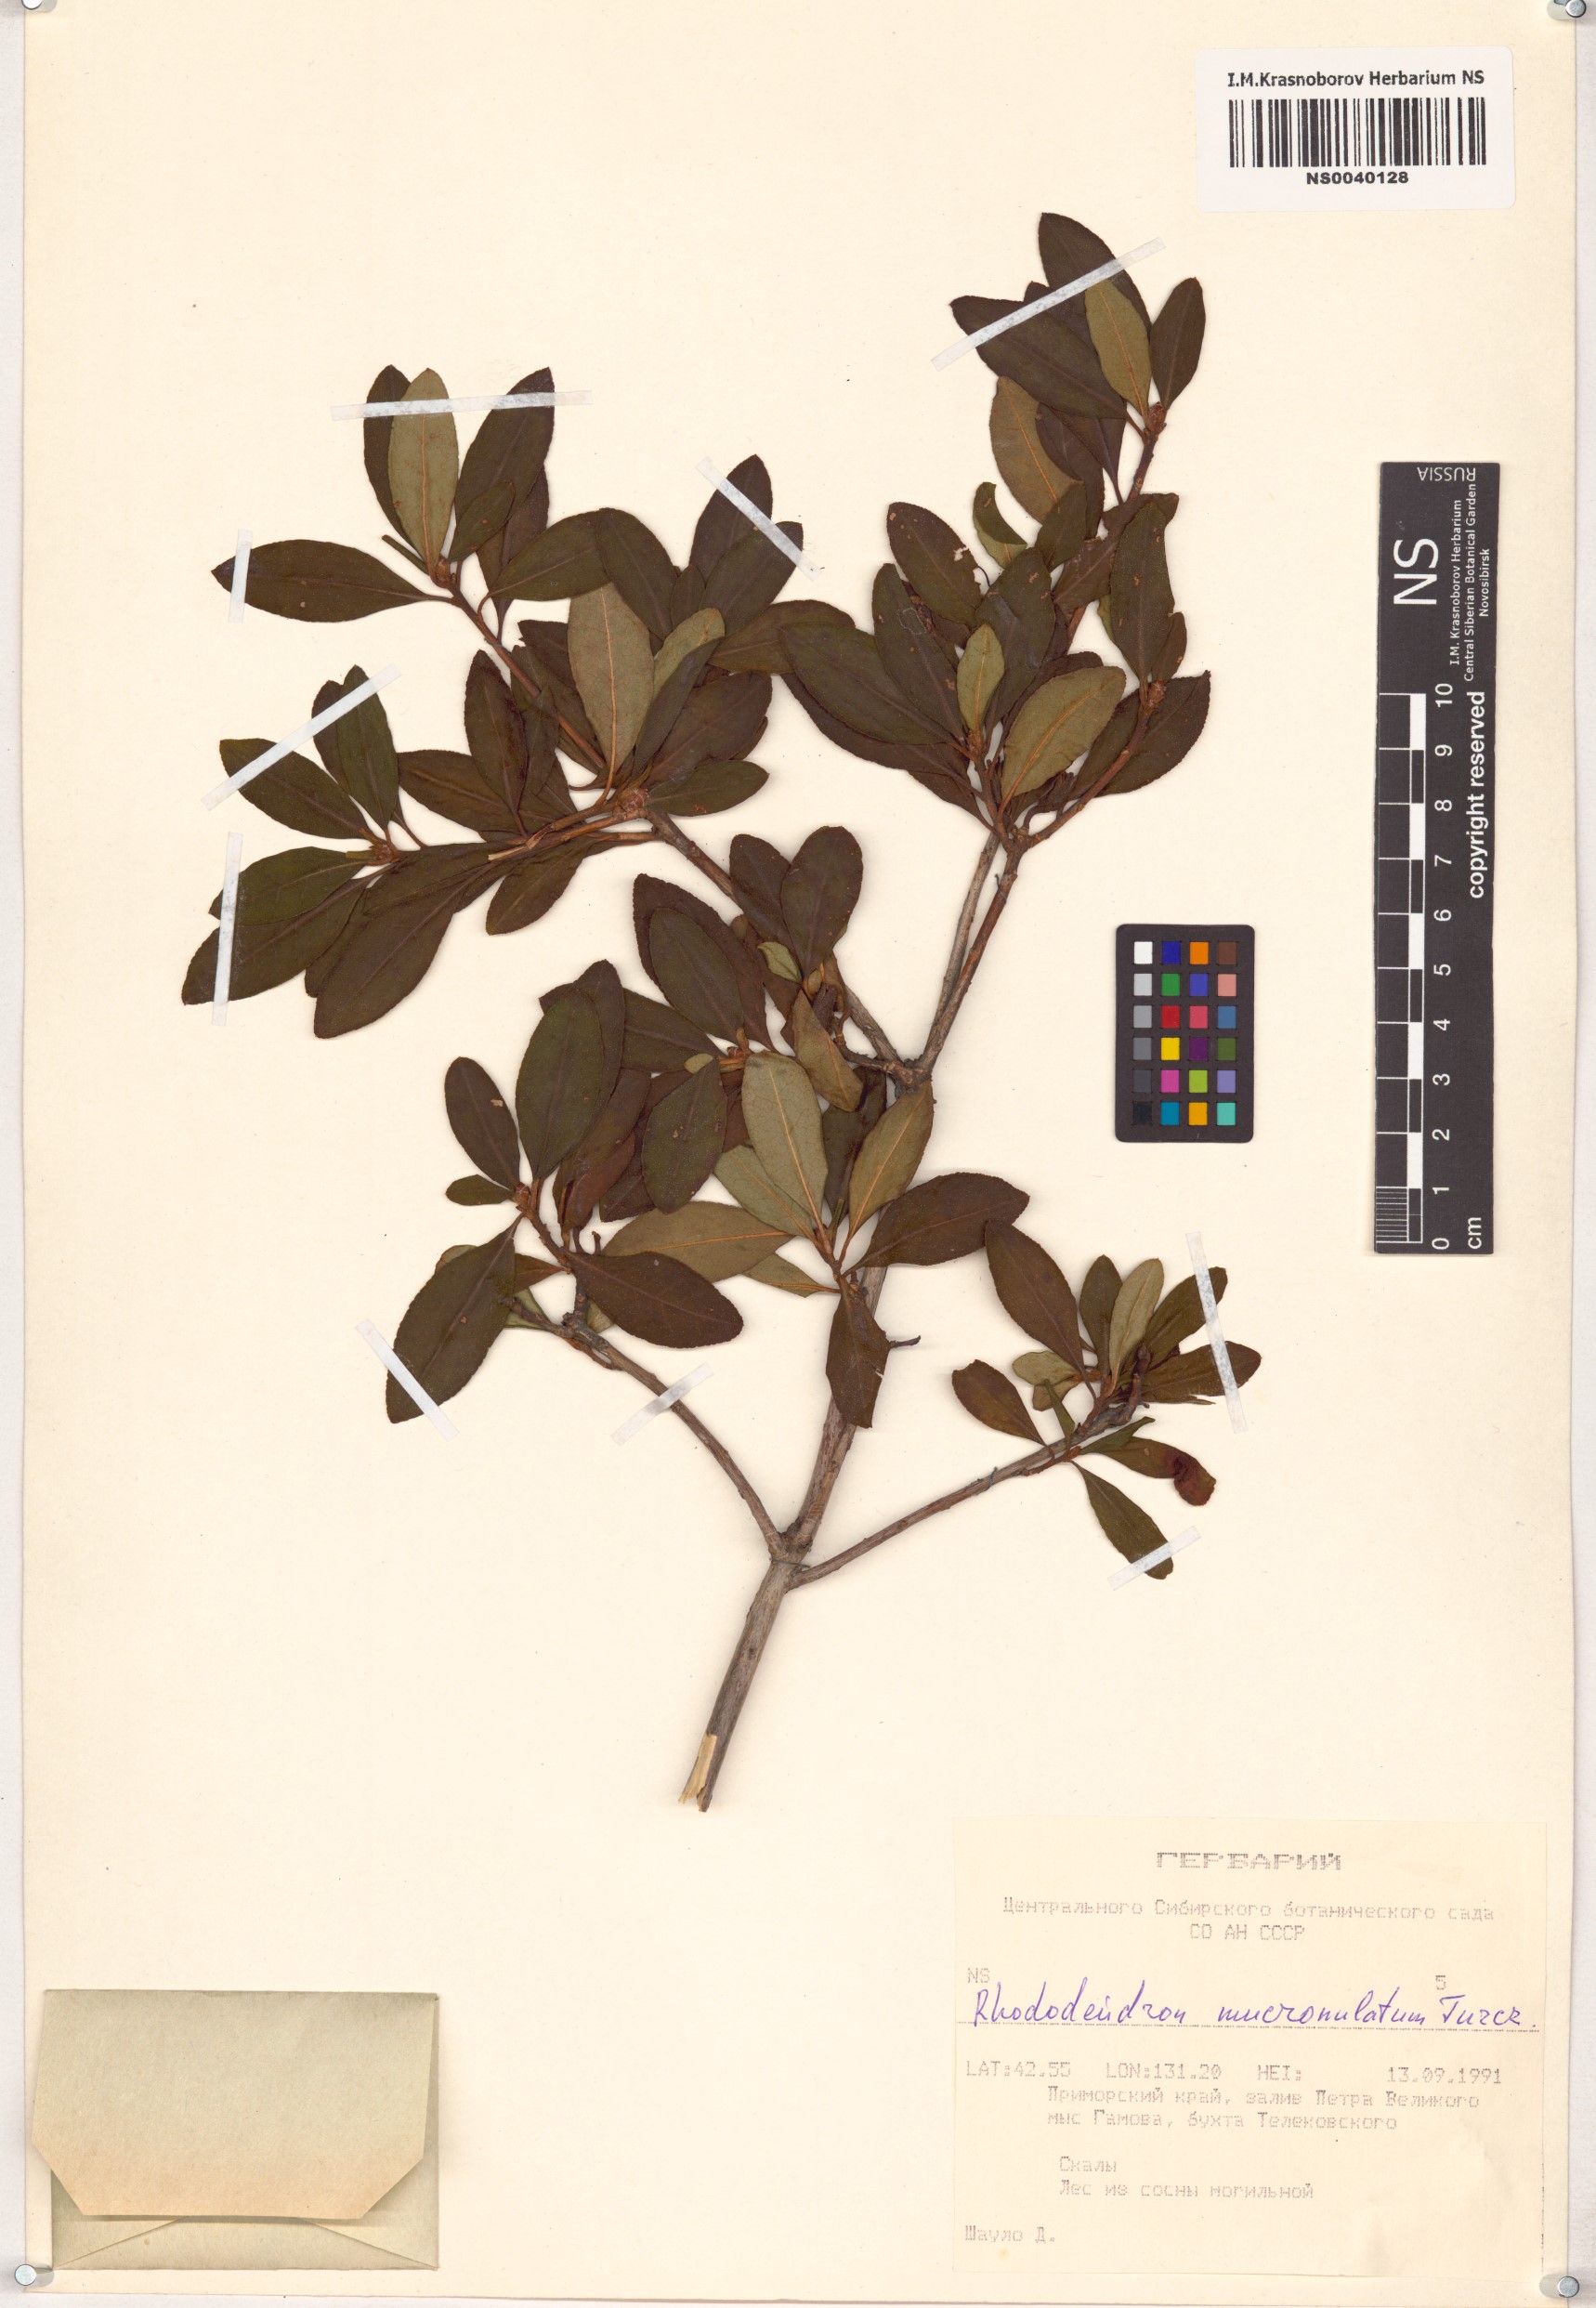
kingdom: Plantae
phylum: Tracheophyta
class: Magnoliopsida
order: Ericales
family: Ericaceae
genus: Rhododendron
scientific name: Rhododendron mucronulatum
